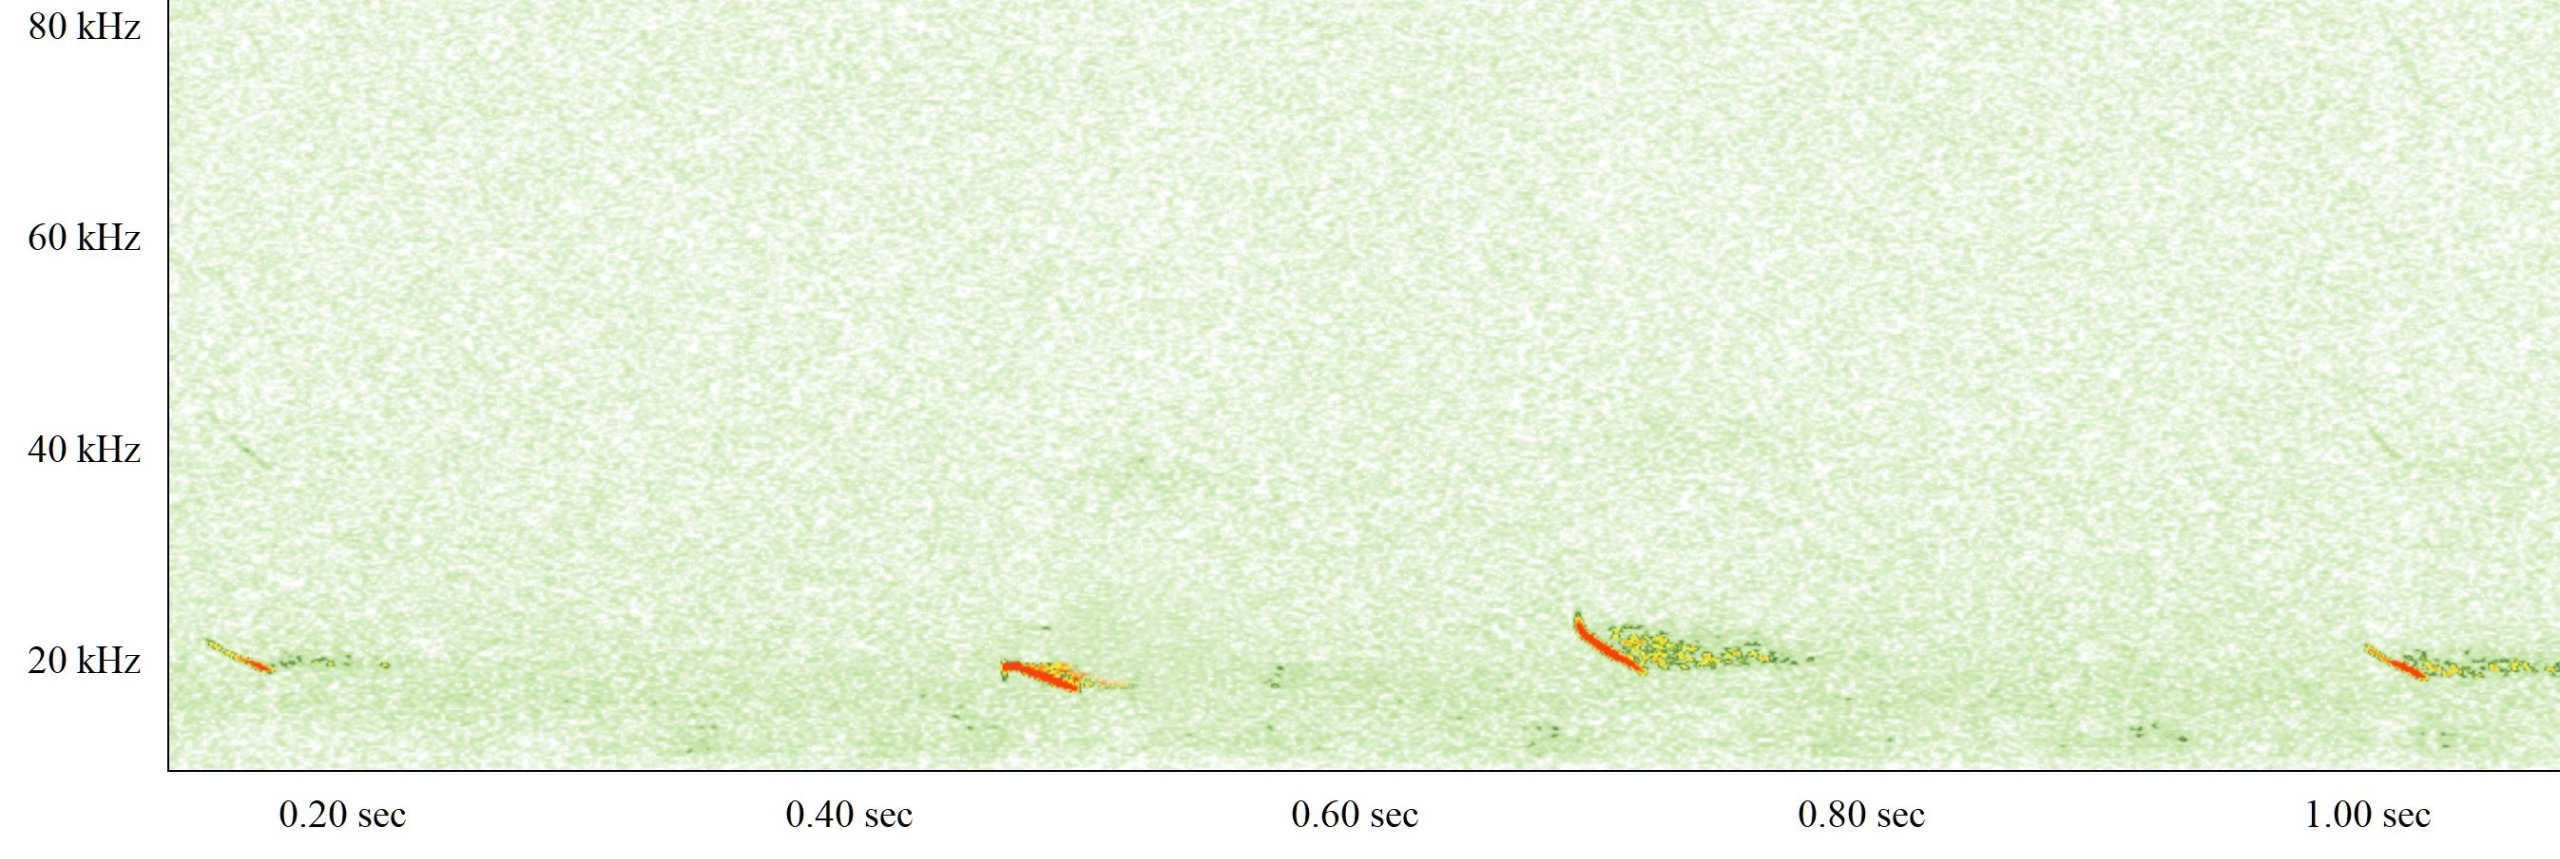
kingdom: Animalia
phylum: Chordata
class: Mammalia
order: Chiroptera
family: Vespertilionidae
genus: Nyctalus
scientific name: Nyctalus noctula
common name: Brunflagermus
